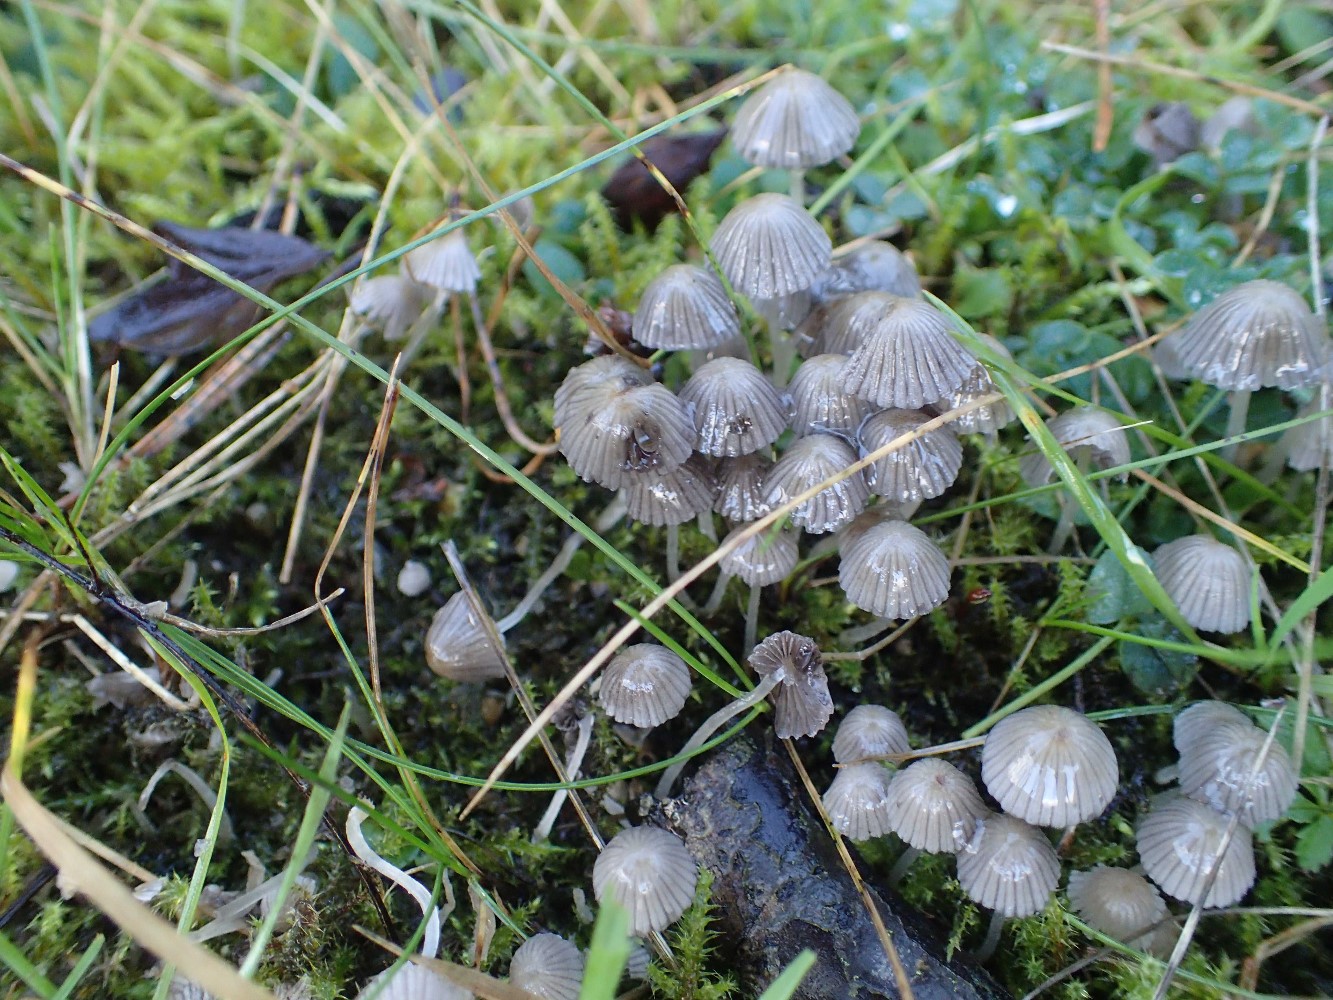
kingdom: Fungi
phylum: Basidiomycota
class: Agaricomycetes
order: Agaricales
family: Psathyrellaceae
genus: Coprinellus
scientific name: Coprinellus disseminatus
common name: bredsået blækhat
